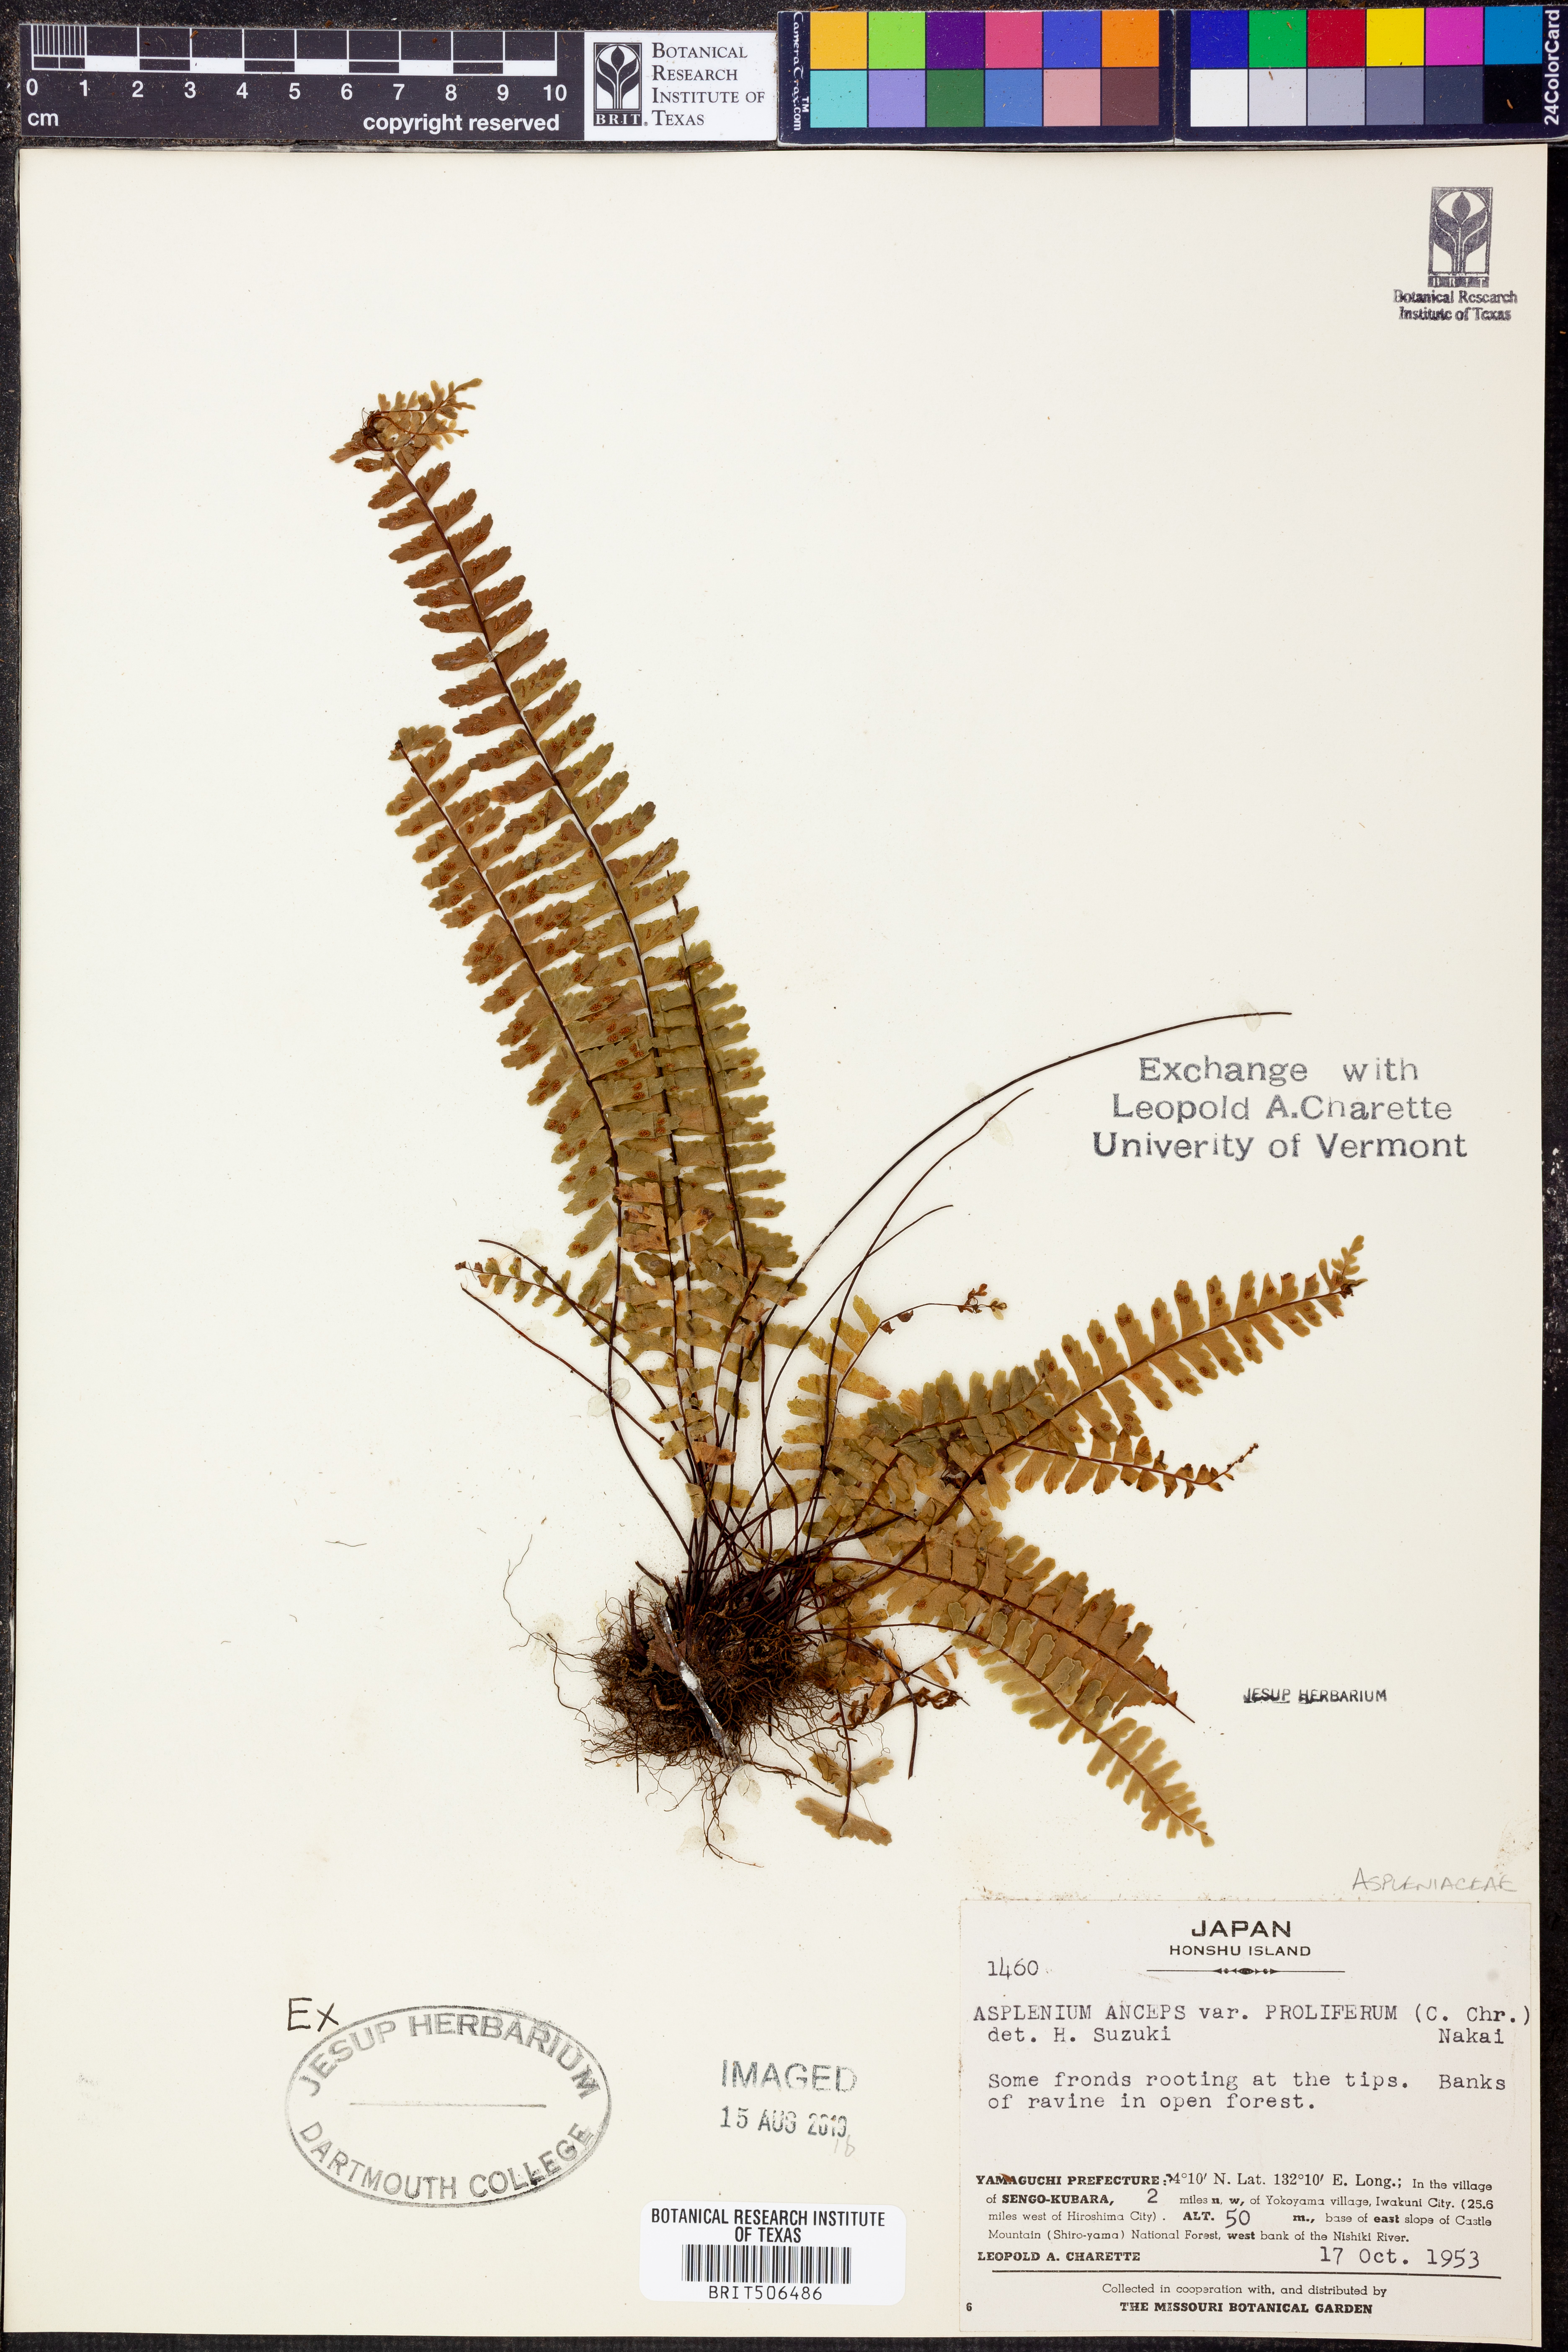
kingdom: Plantae
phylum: Tracheophyta
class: Polypodiopsida
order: Polypodiales
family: Aspleniaceae
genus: Asplenium
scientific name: Asplenium tripteropus
